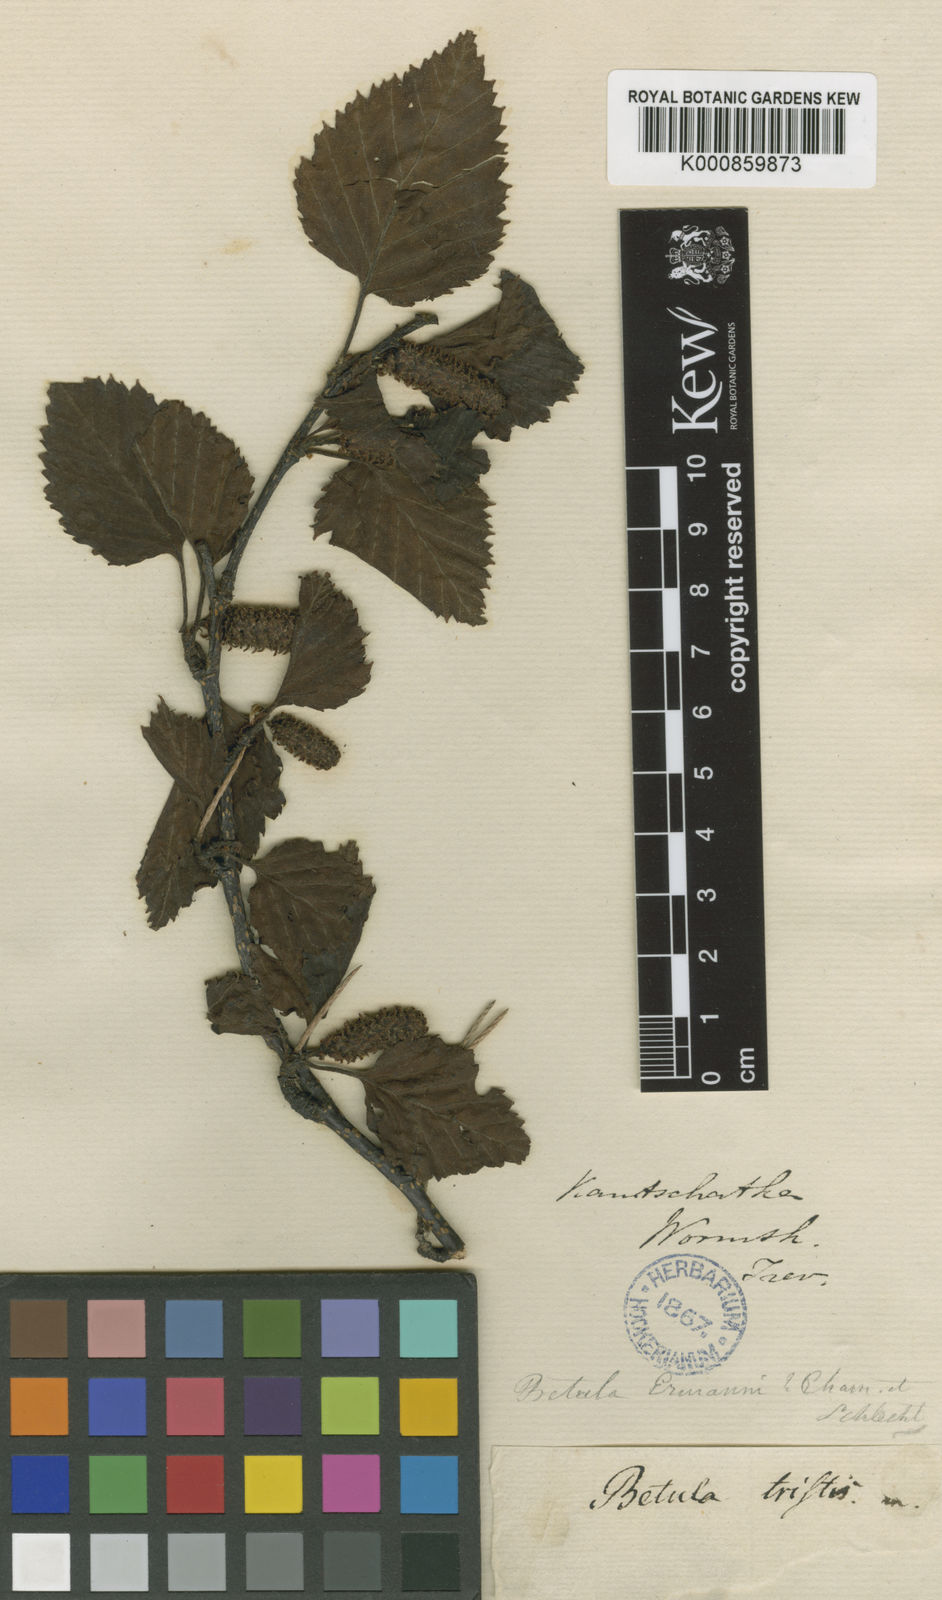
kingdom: Plantae
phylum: Tracheophyta
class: Magnoliopsida
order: Fagales
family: Betulaceae
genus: Betula
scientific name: Betula ermanii
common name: Erman's birch
